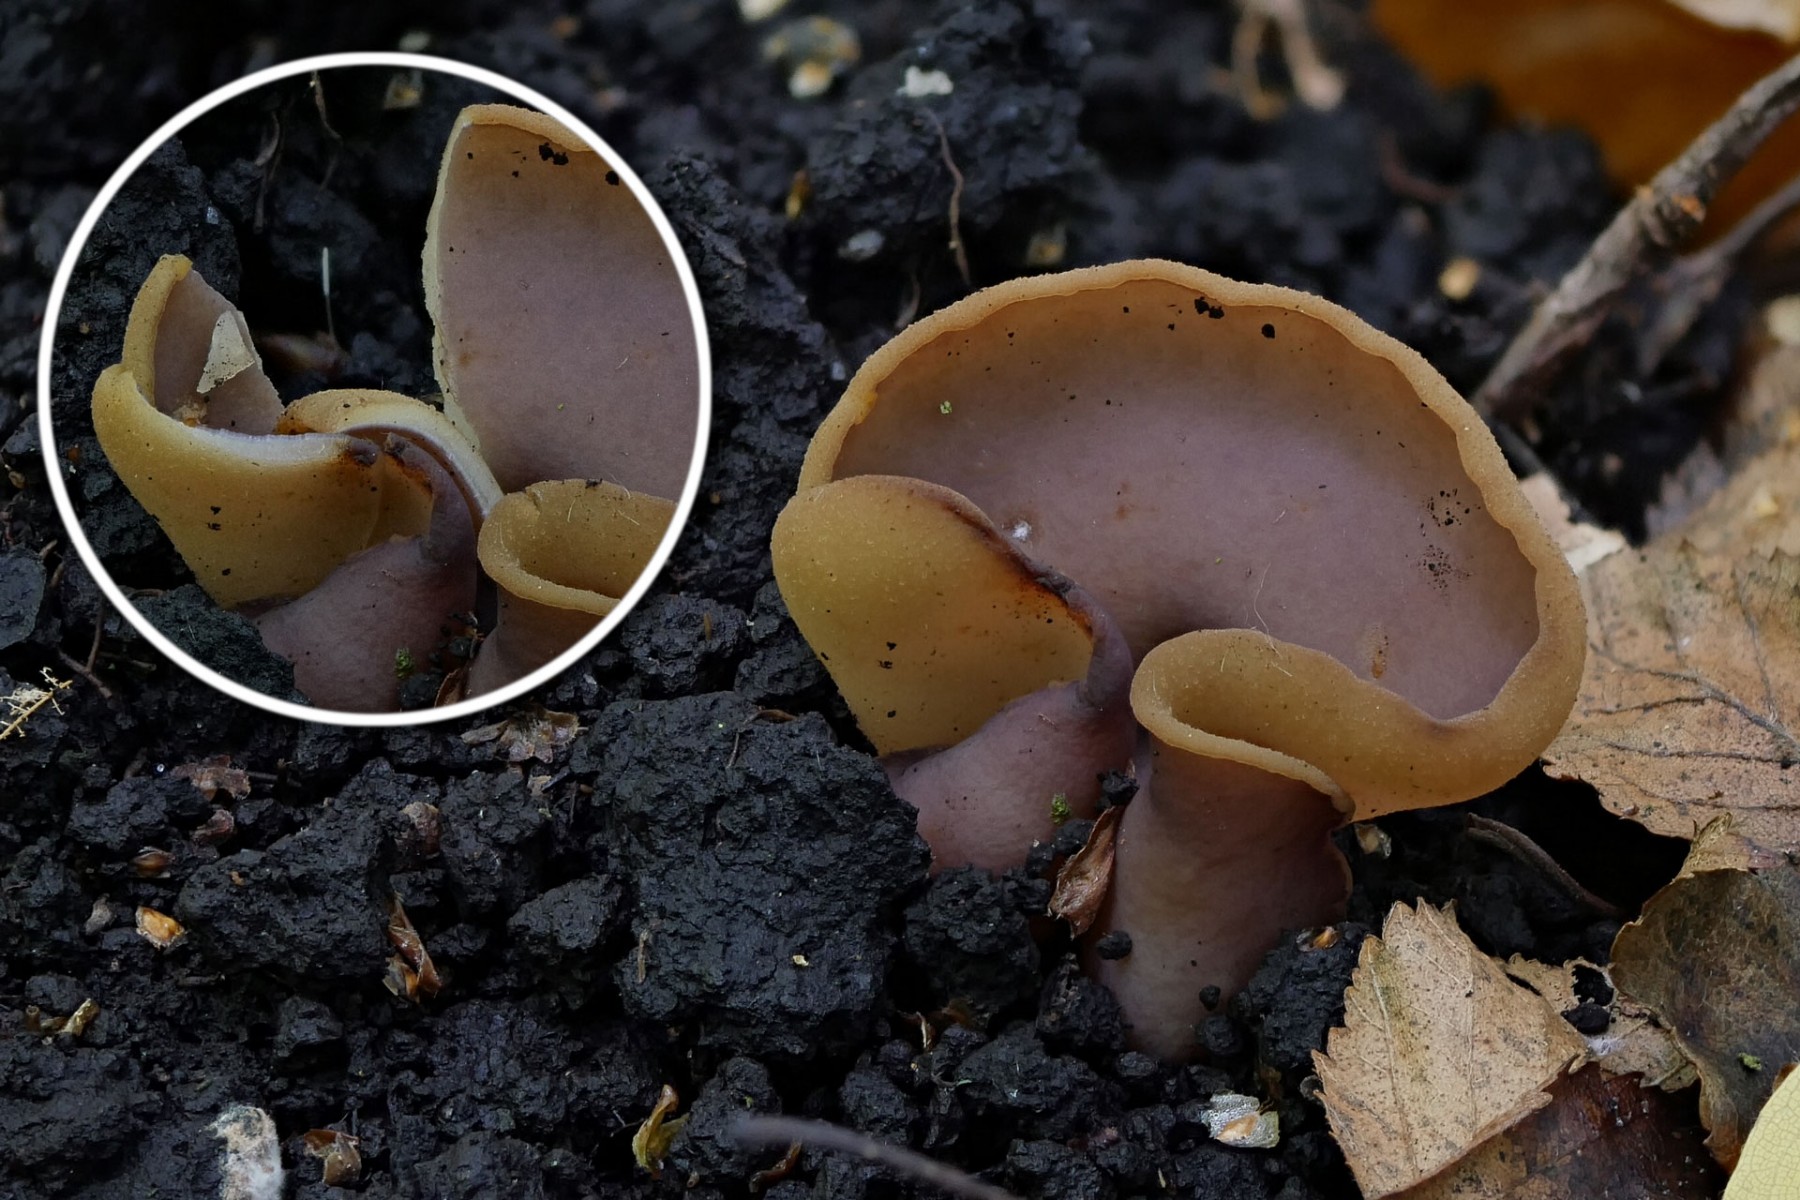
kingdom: Fungi
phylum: Ascomycota
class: Pezizomycetes
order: Pezizales
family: Pezizaceae
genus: Paragalactinia
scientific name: Paragalactinia michelii
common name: gulkødet bægersvamp
